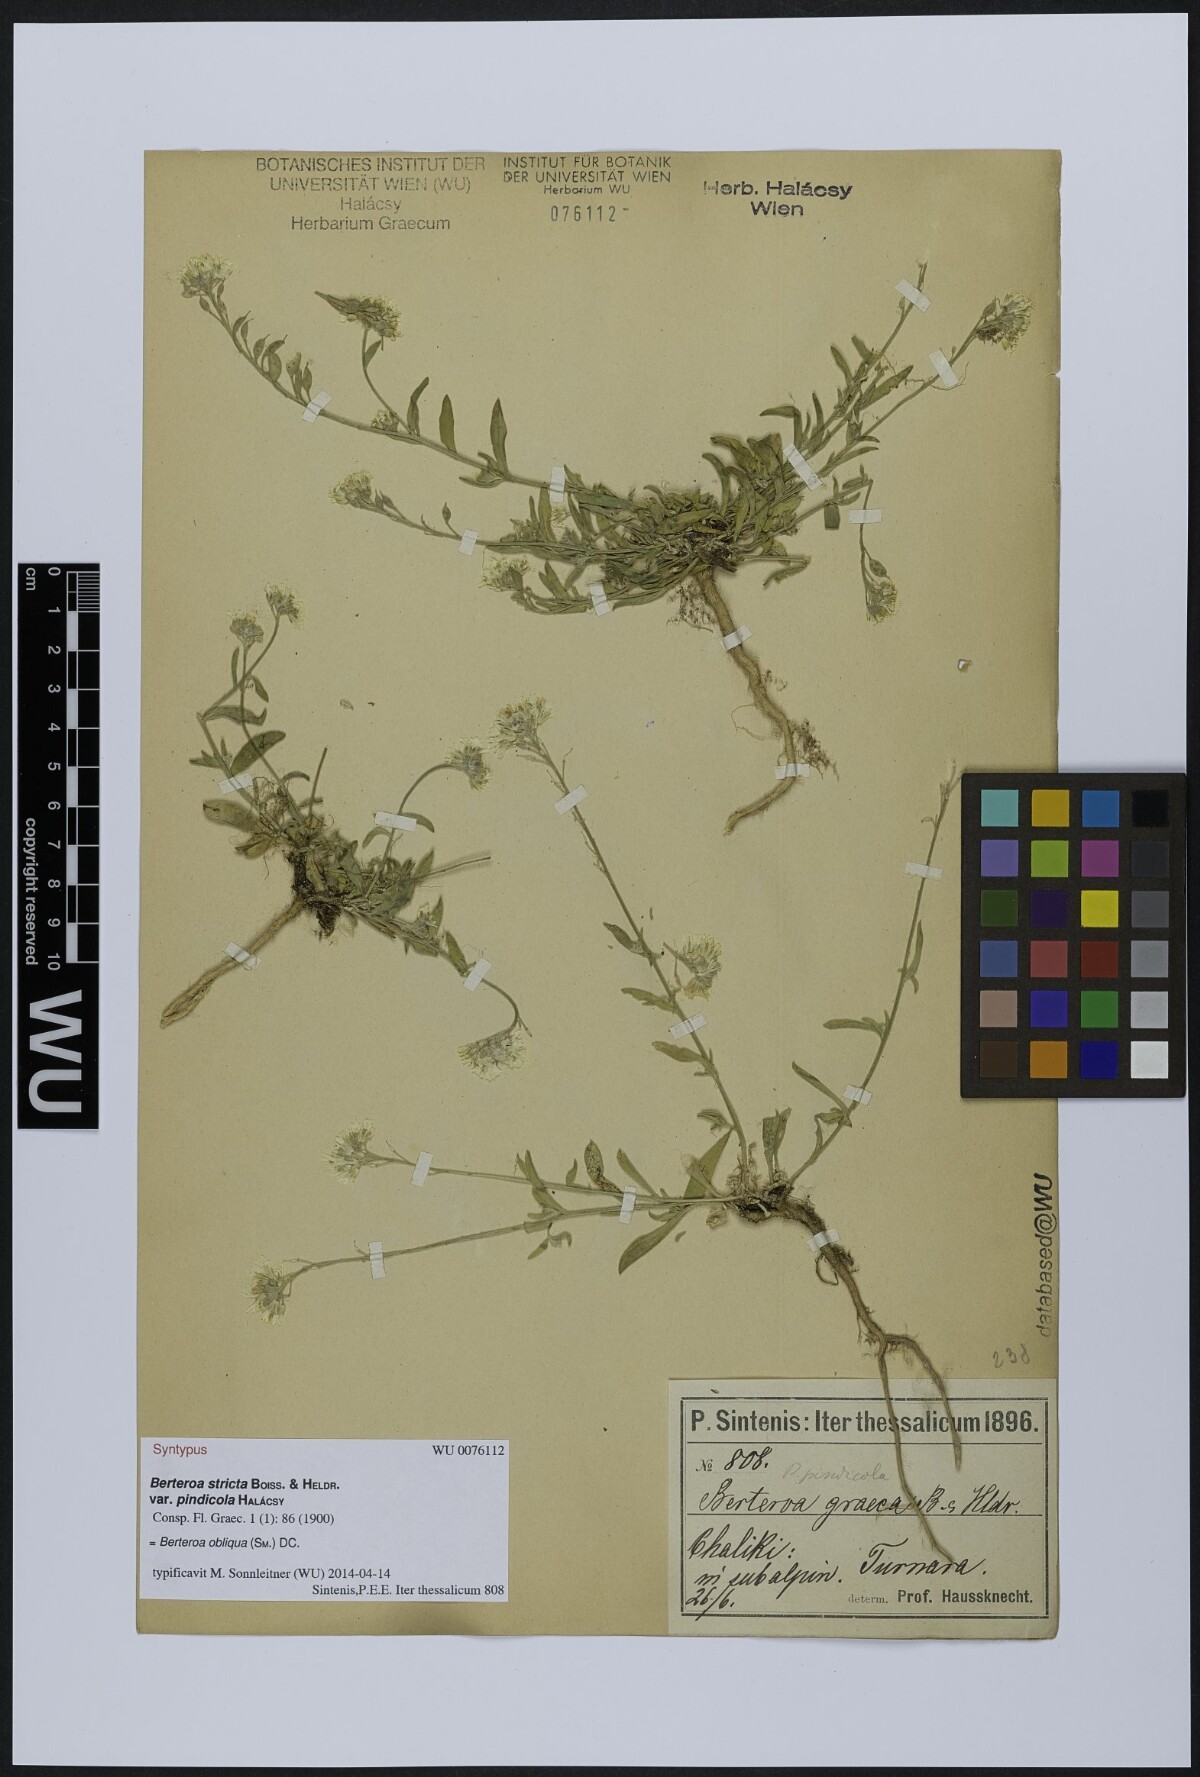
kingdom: Plantae
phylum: Tracheophyta
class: Magnoliopsida
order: Brassicales
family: Brassicaceae
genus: Berteroa
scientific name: Berteroa incana
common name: Hoary alison
